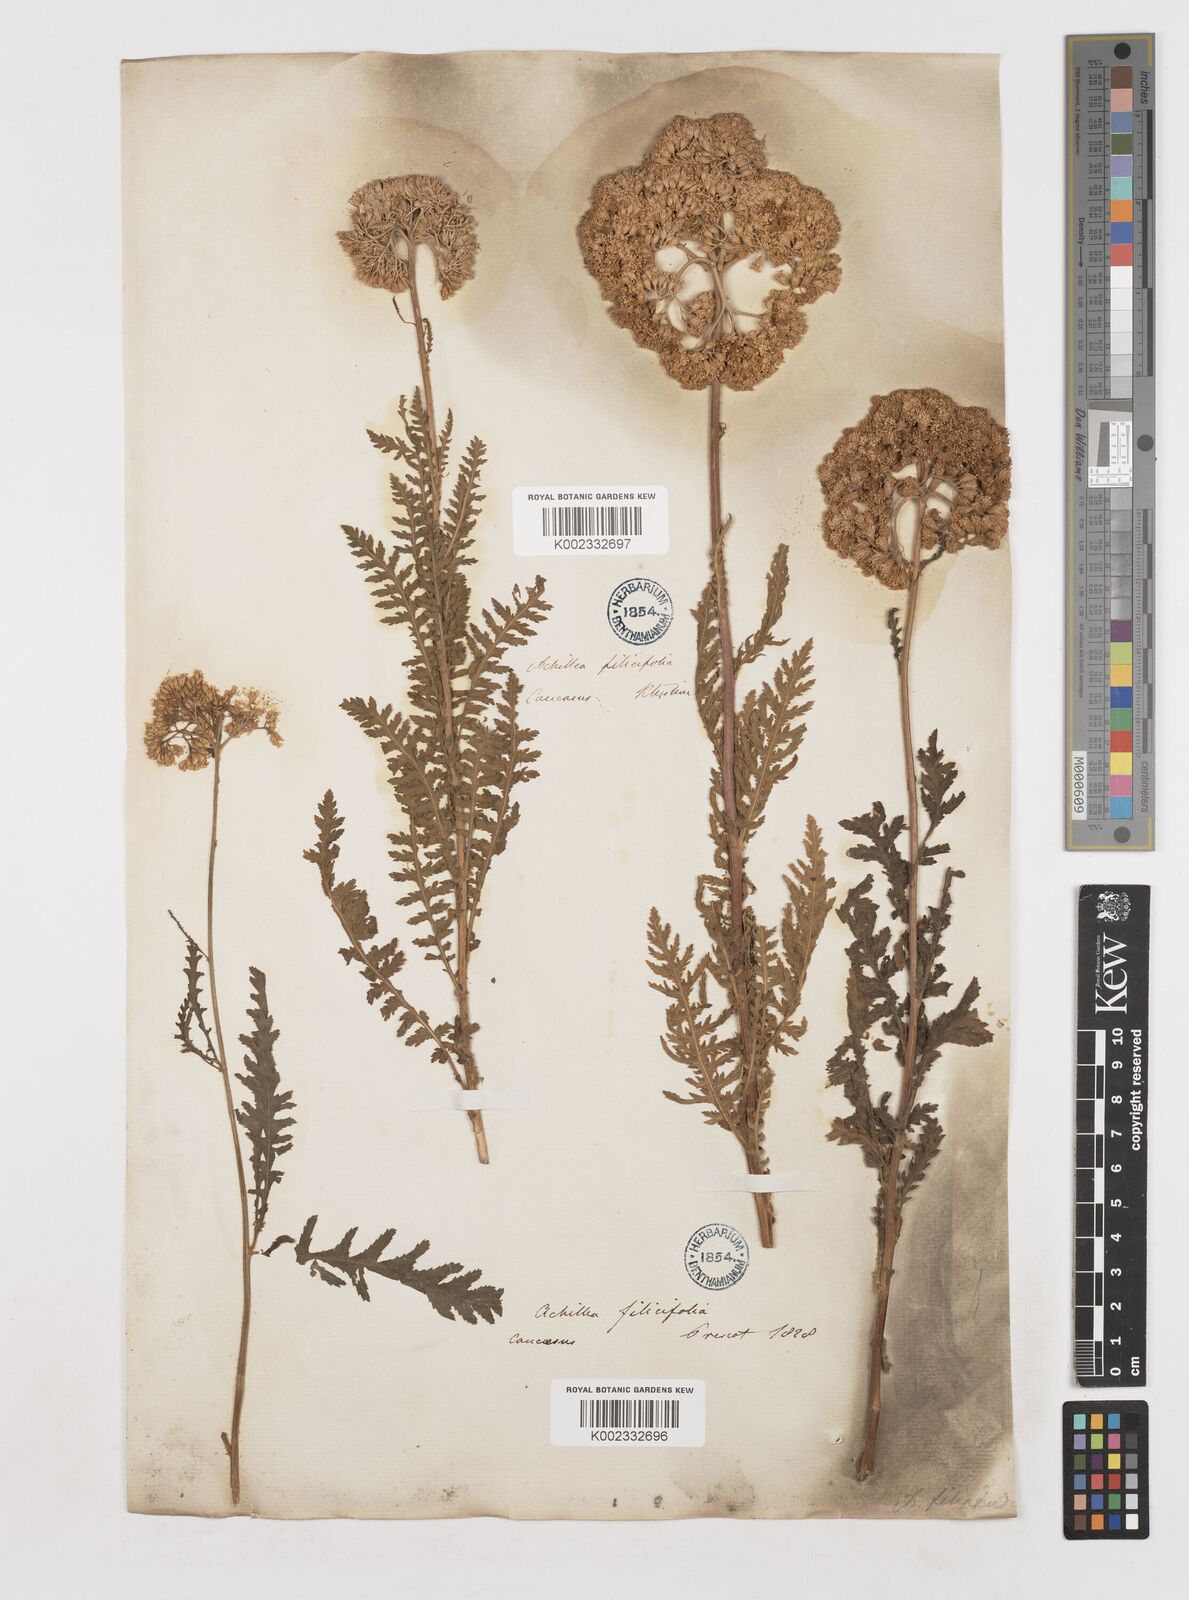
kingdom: Plantae
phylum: Tracheophyta
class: Magnoliopsida
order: Asterales
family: Asteraceae
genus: Achillea
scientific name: Achillea filipendulina
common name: Fernleaf yarrow
